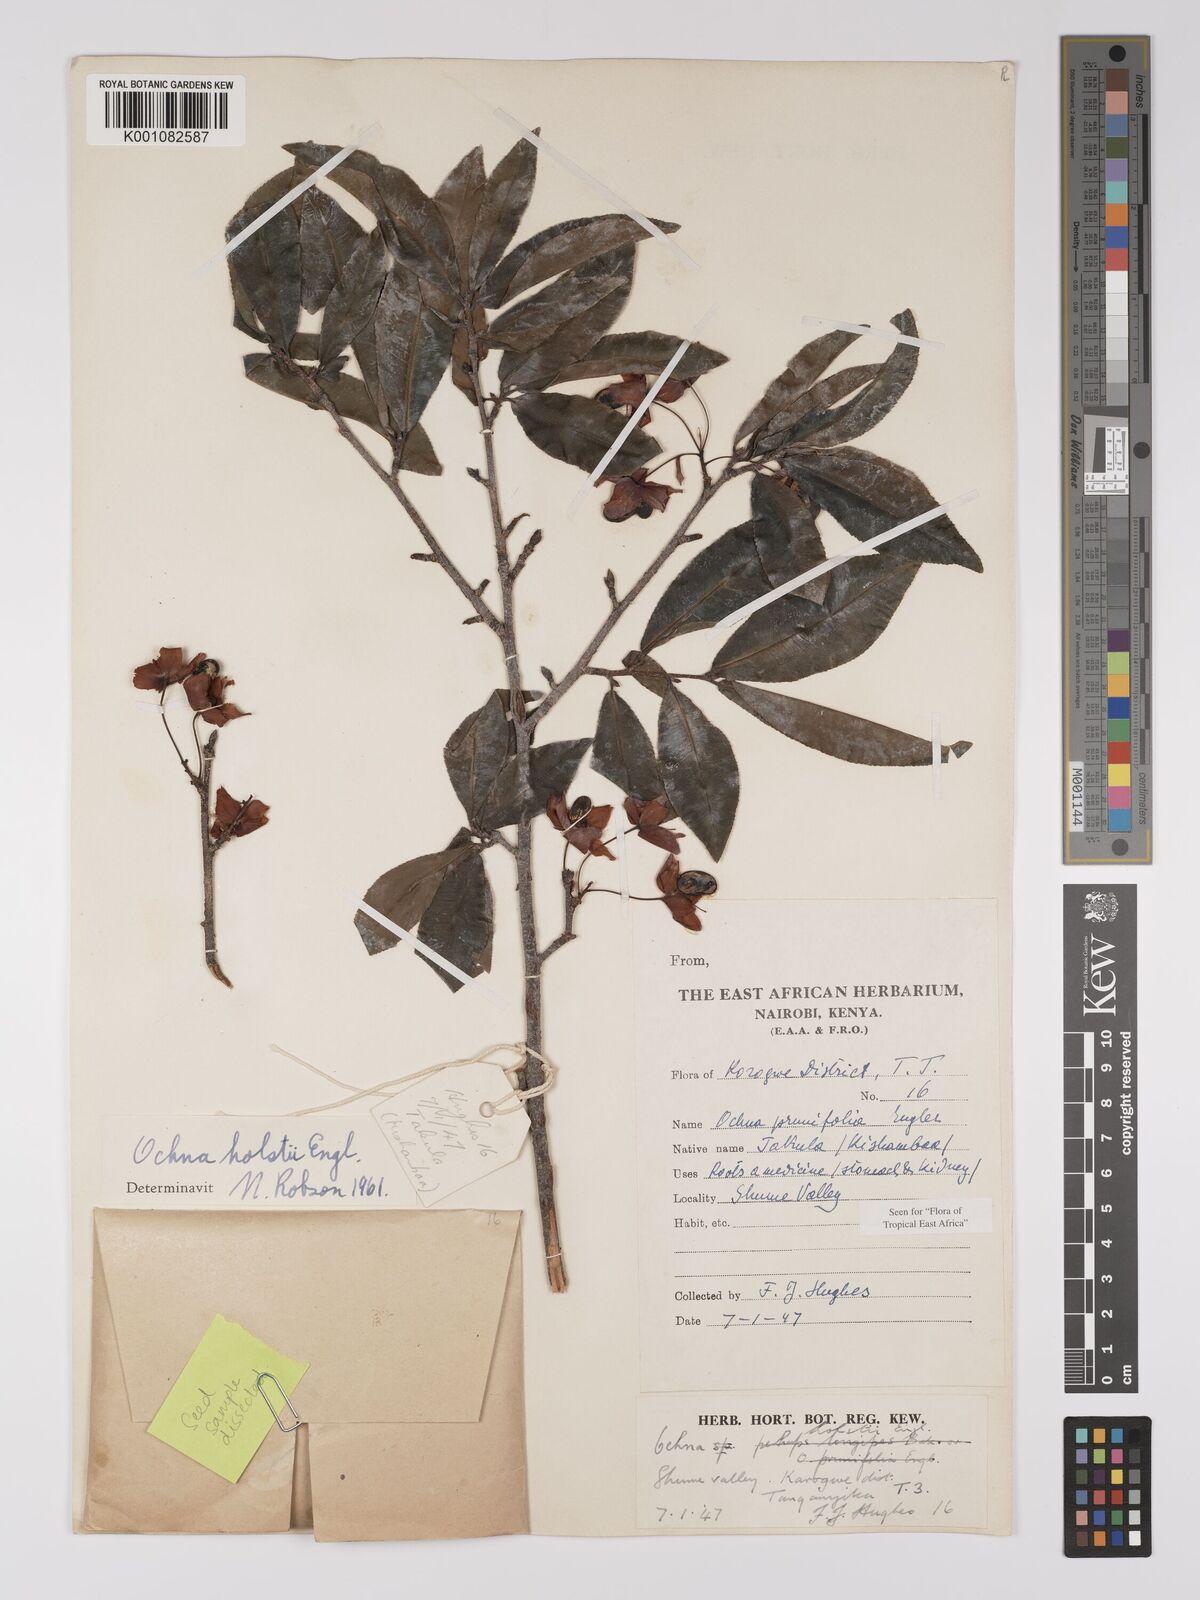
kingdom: Plantae
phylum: Tracheophyta
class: Magnoliopsida
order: Malpighiales
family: Ochnaceae
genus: Ochna
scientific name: Ochna holstii
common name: Red ironwood
